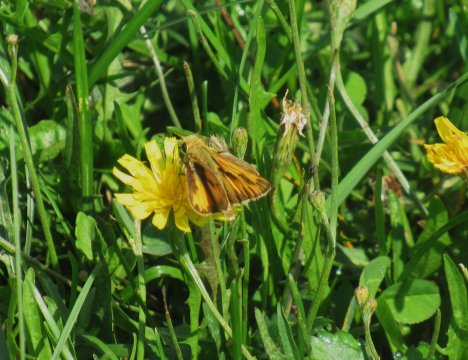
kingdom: Animalia
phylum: Arthropoda
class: Insecta
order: Lepidoptera
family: Hesperiidae
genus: Hylephila
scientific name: Hylephila phyleus
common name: Fiery Skipper
